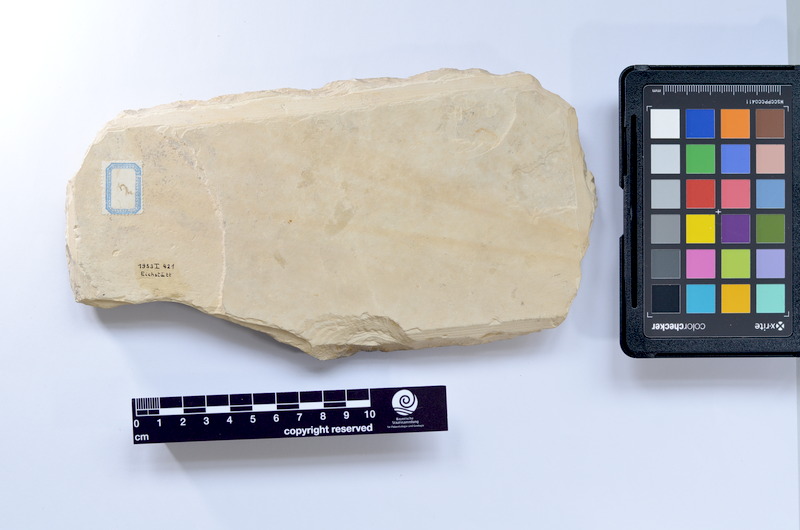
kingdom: Animalia
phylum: Chordata
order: Elopiformes
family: Anaethalionidae
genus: Anaethalion
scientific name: Anaethalion knorri
